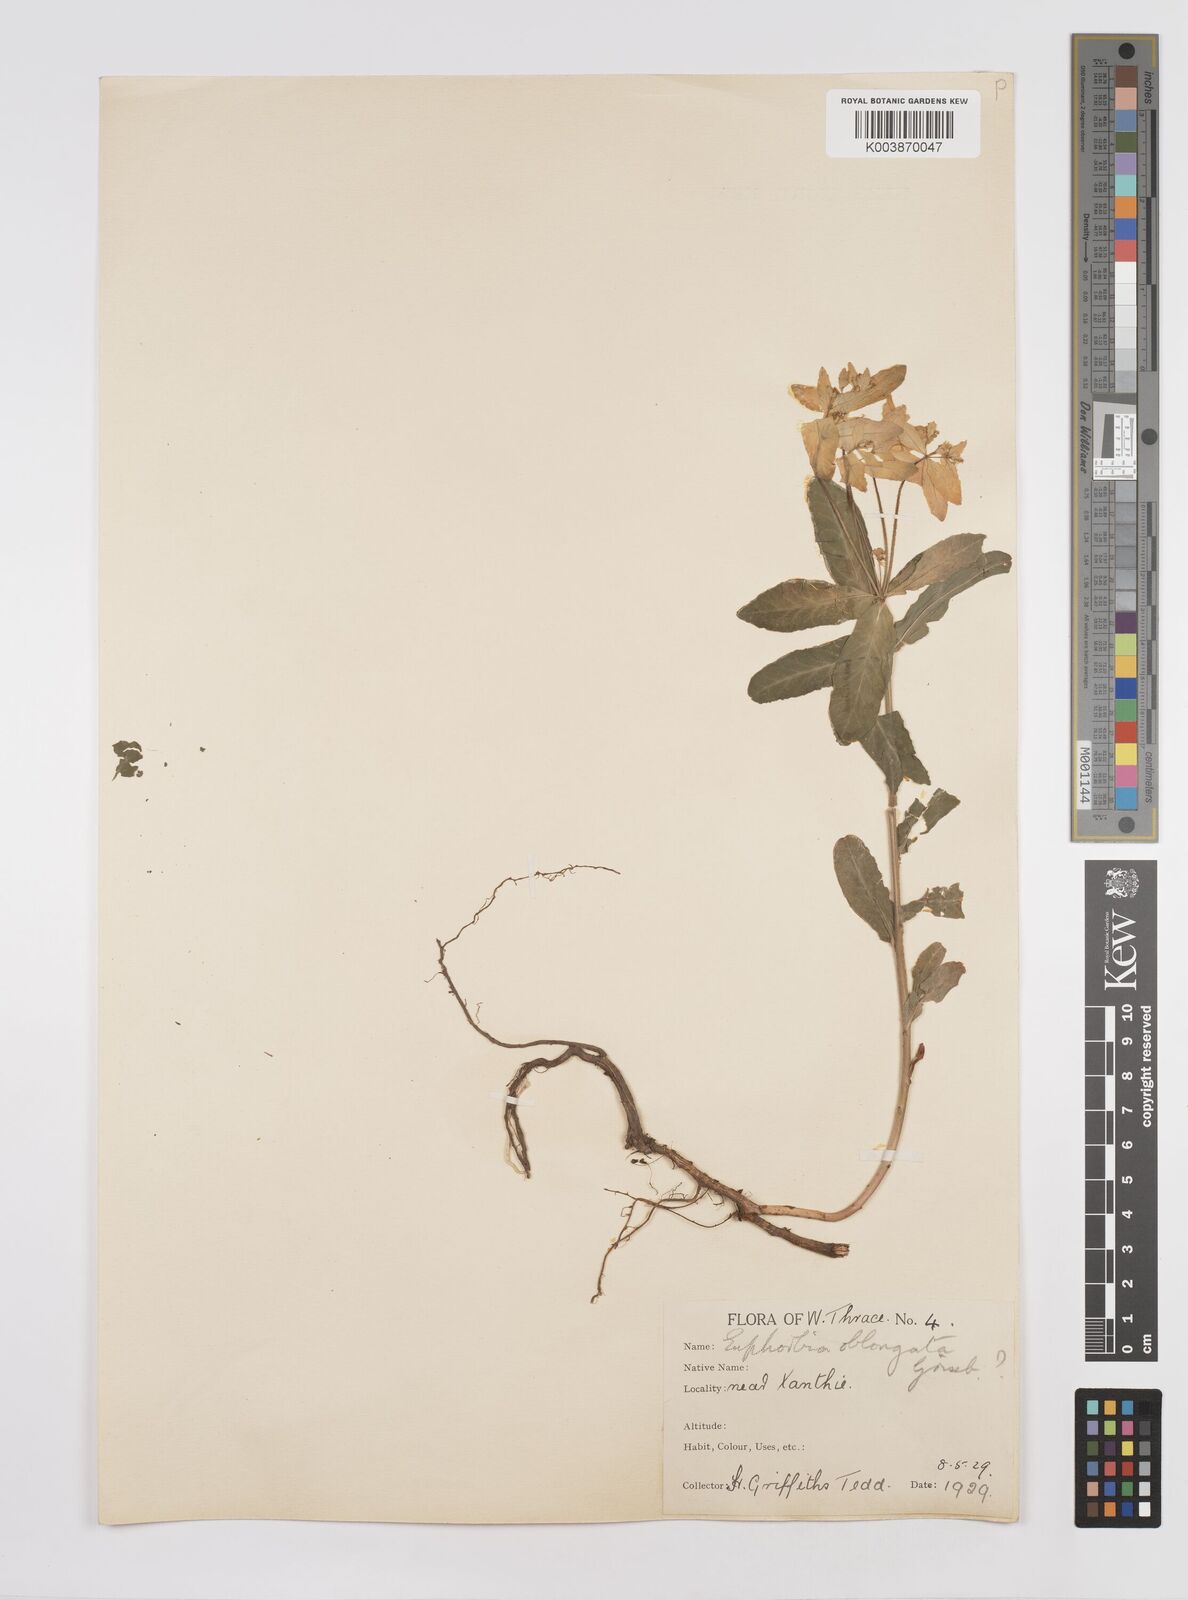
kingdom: Plantae
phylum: Tracheophyta
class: Magnoliopsida
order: Malpighiales
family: Euphorbiaceae
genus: Euphorbia
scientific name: Euphorbia epithymoides
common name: Cushion spurge
